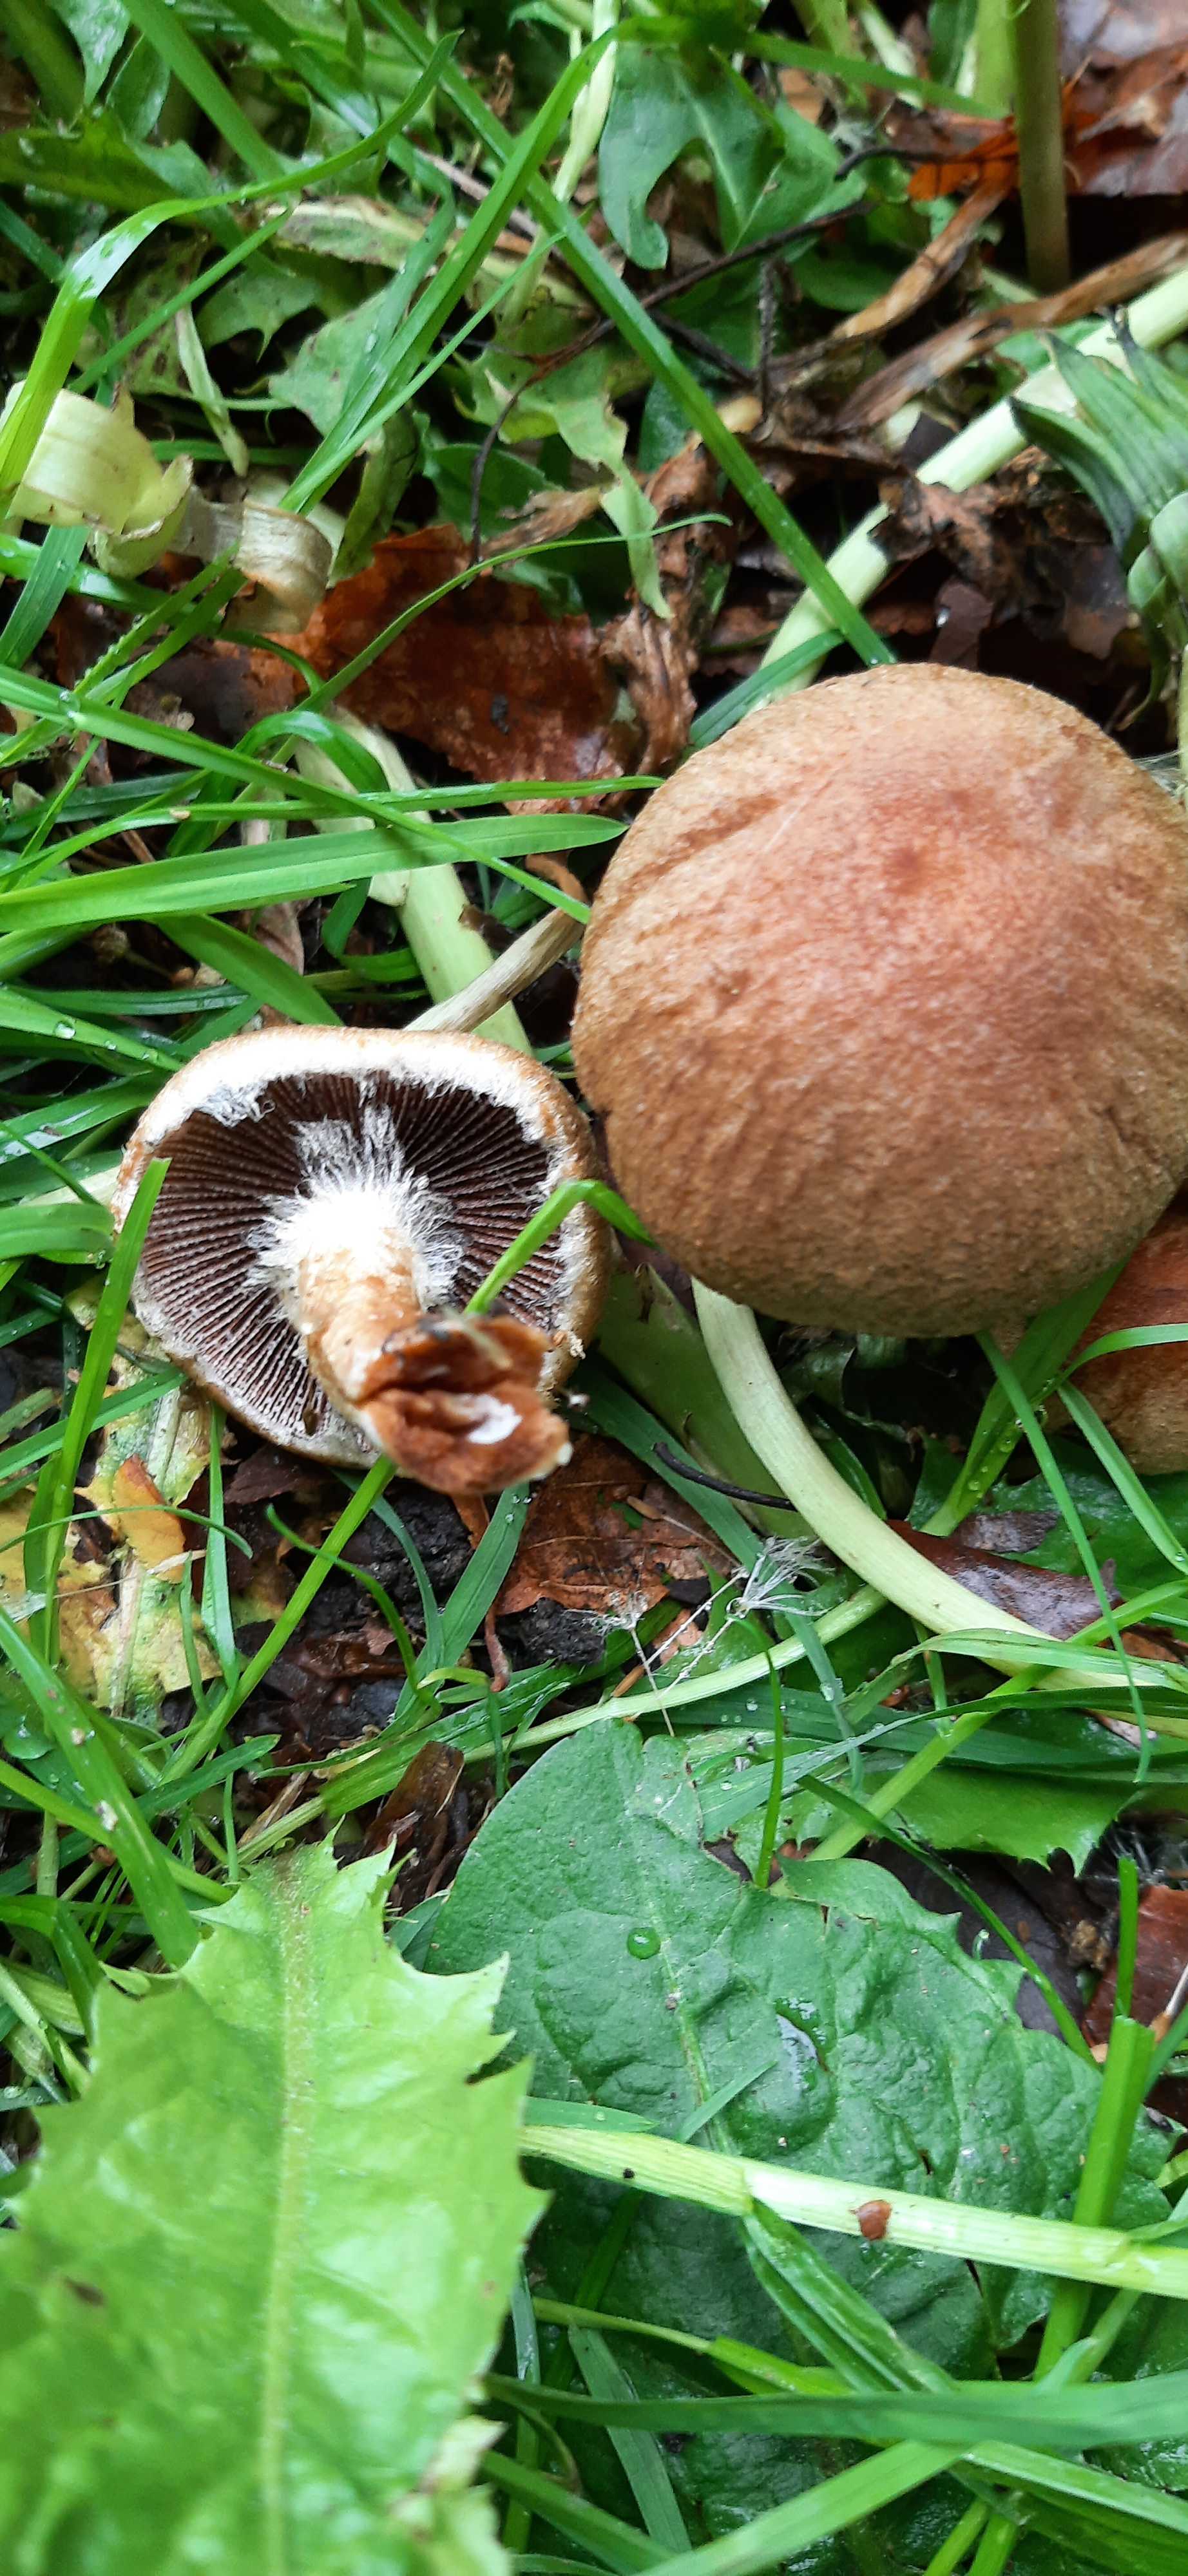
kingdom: Fungi
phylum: Basidiomycota
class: Agaricomycetes
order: Agaricales
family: Psathyrellaceae
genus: Lacrymaria
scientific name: Lacrymaria lacrymabunda
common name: grædende mørkhat
